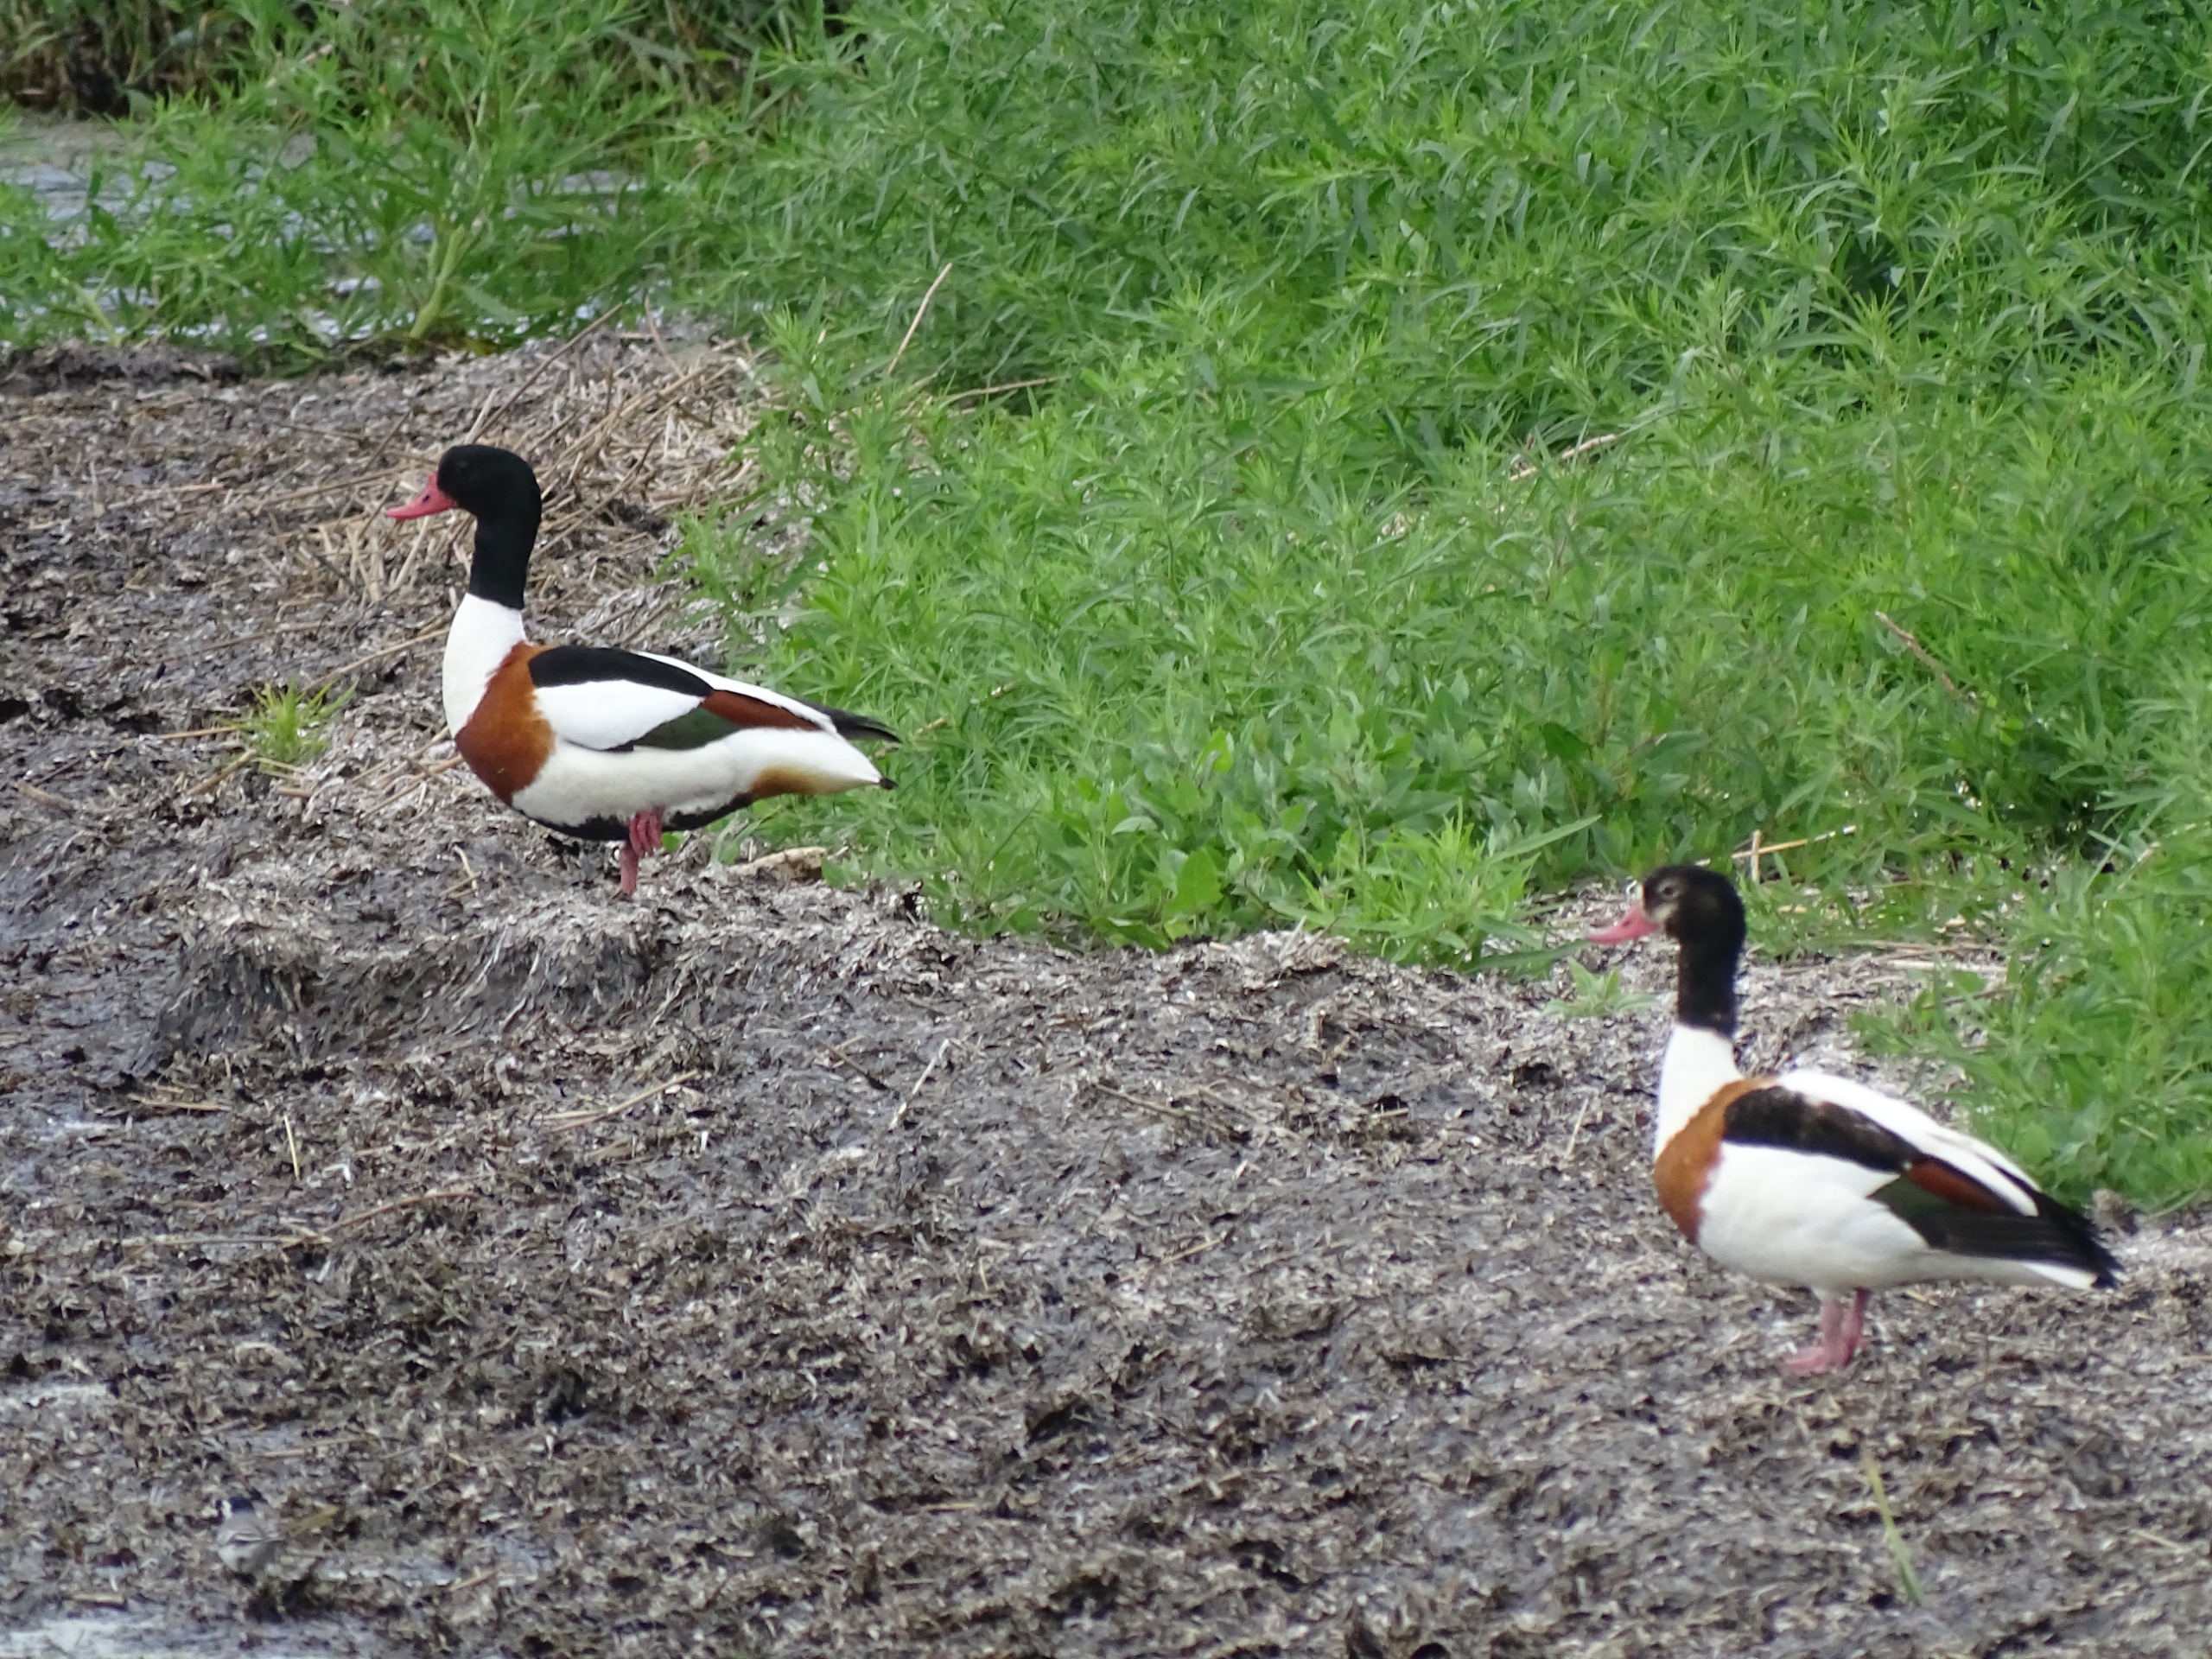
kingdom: Animalia
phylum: Chordata
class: Aves
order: Anseriformes
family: Anatidae
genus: Tadorna
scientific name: Tadorna tadorna
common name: Gravand
